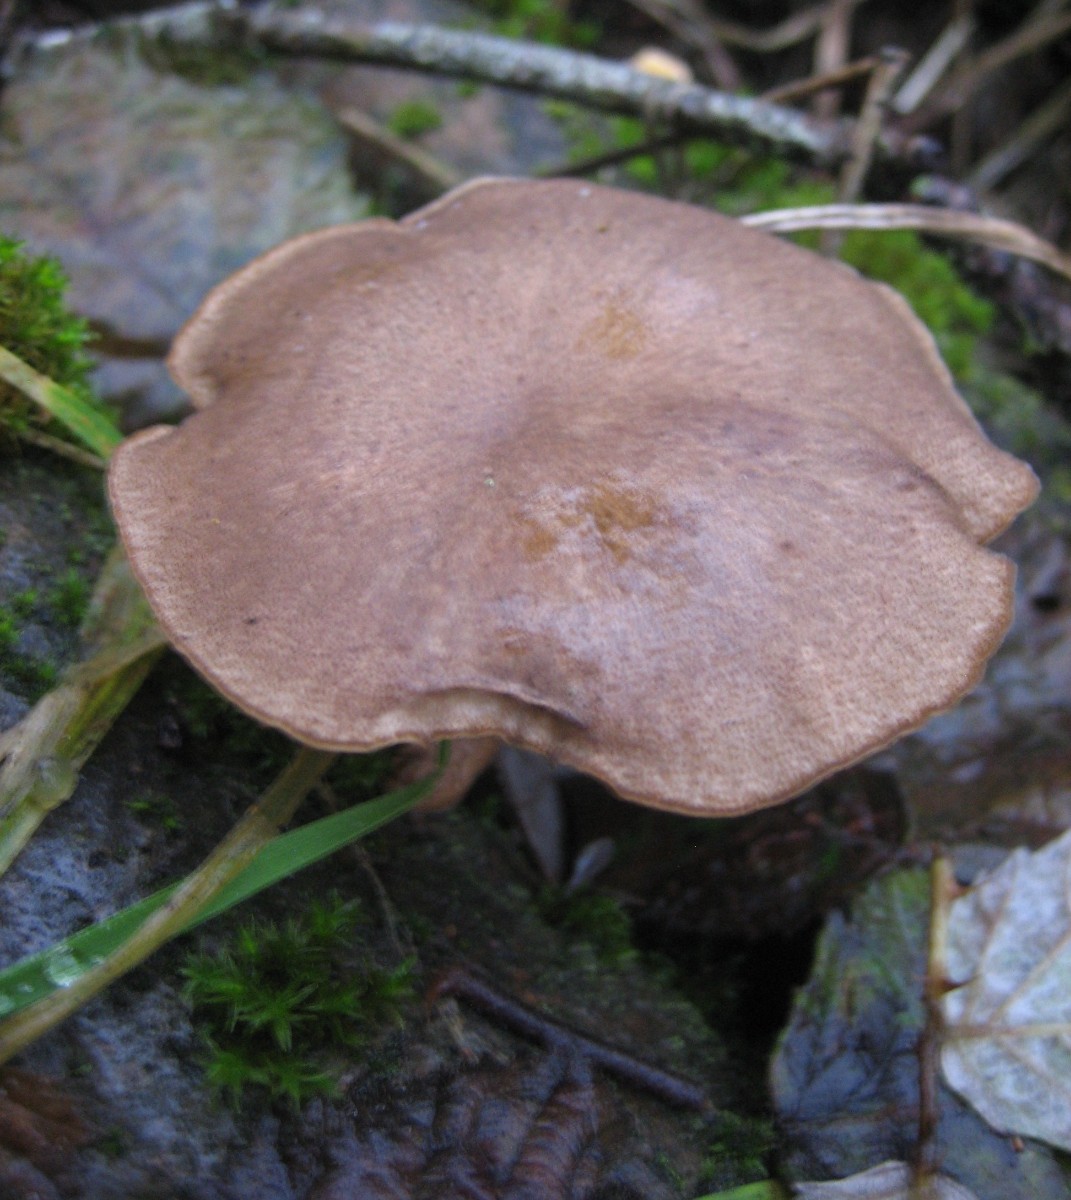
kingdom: Fungi
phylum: Basidiomycota
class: Agaricomycetes
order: Polyporales
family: Polyporaceae
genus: Lentinus
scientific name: Lentinus brumalis
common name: vinter-stilkporesvamp
